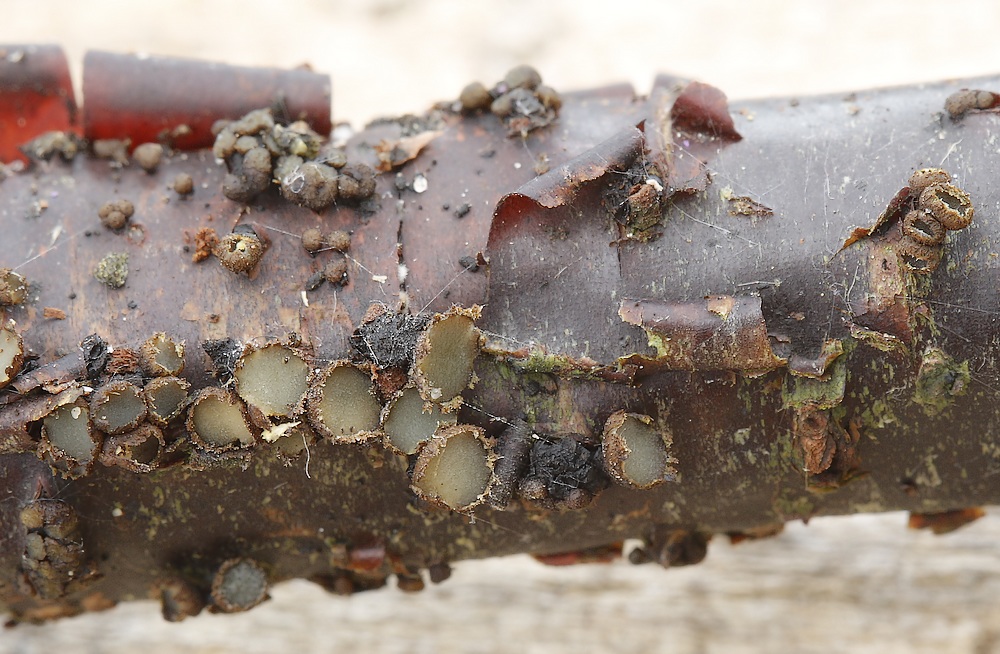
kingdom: Fungi
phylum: Ascomycota
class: Leotiomycetes
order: Helotiales
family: Godroniaceae
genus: Godronia
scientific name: Godronia ribis
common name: ribs-urneskive
